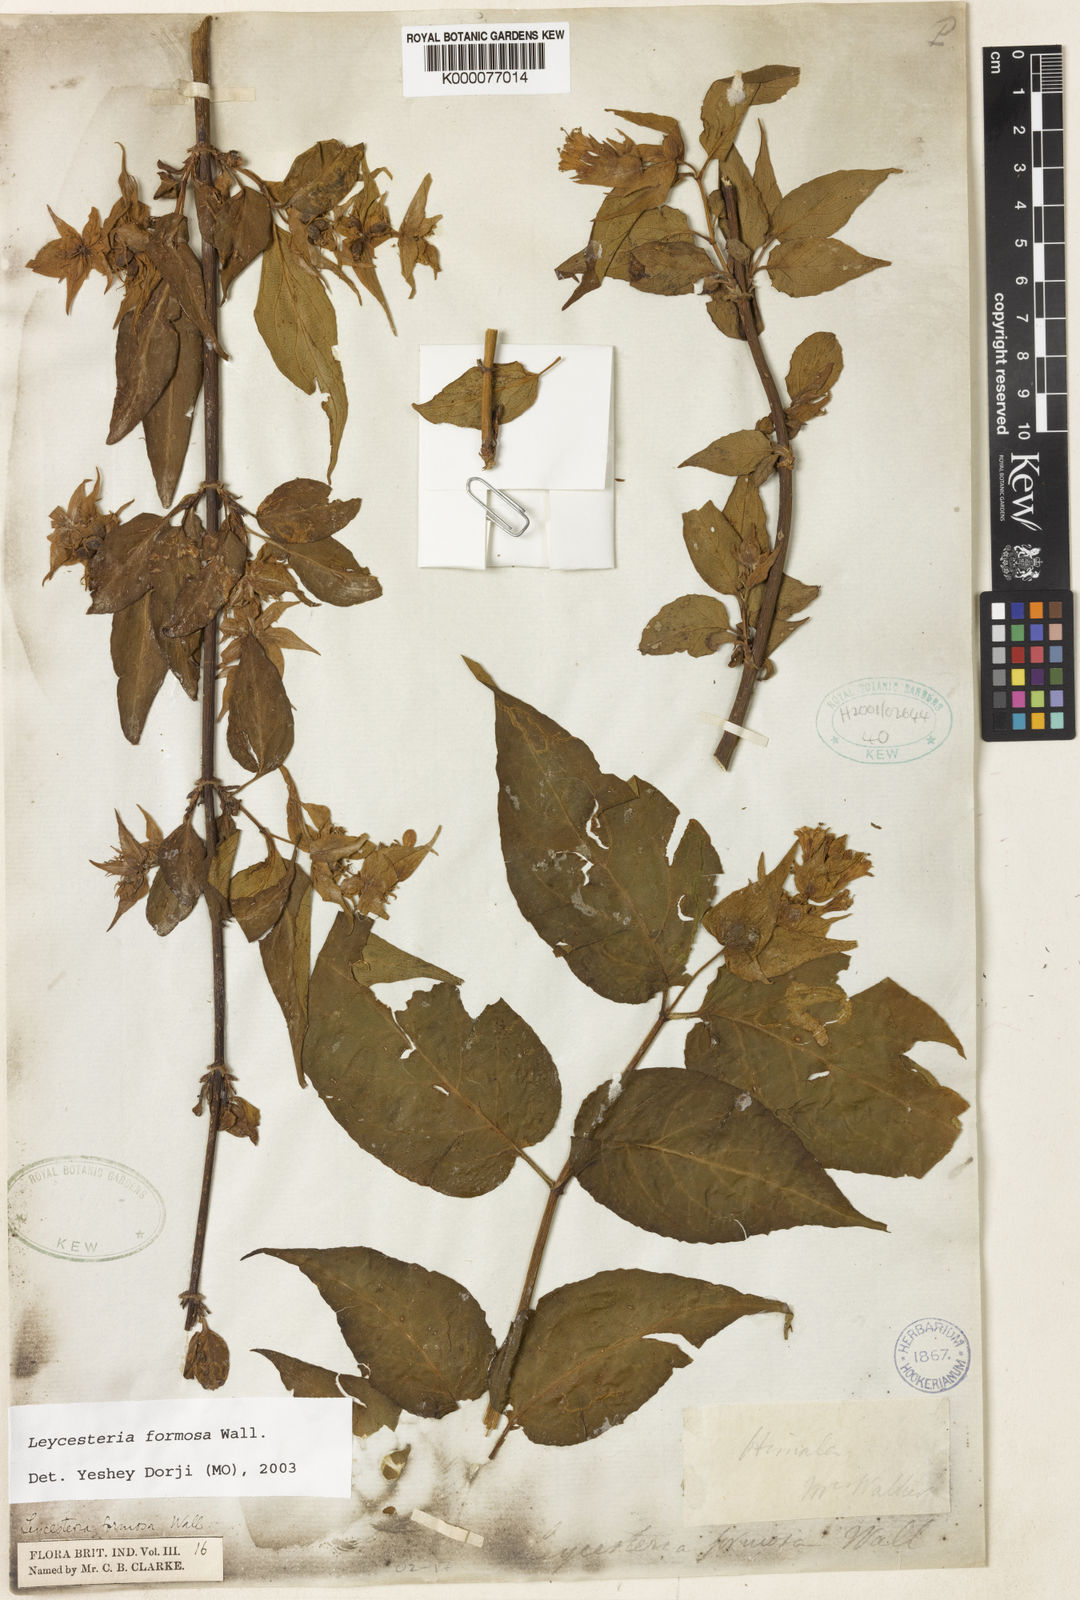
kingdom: Plantae
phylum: Tracheophyta
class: Magnoliopsida
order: Dipsacales
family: Caprifoliaceae
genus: Leycesteria
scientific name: Leycesteria formosa
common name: Himalayan honeysuckle
